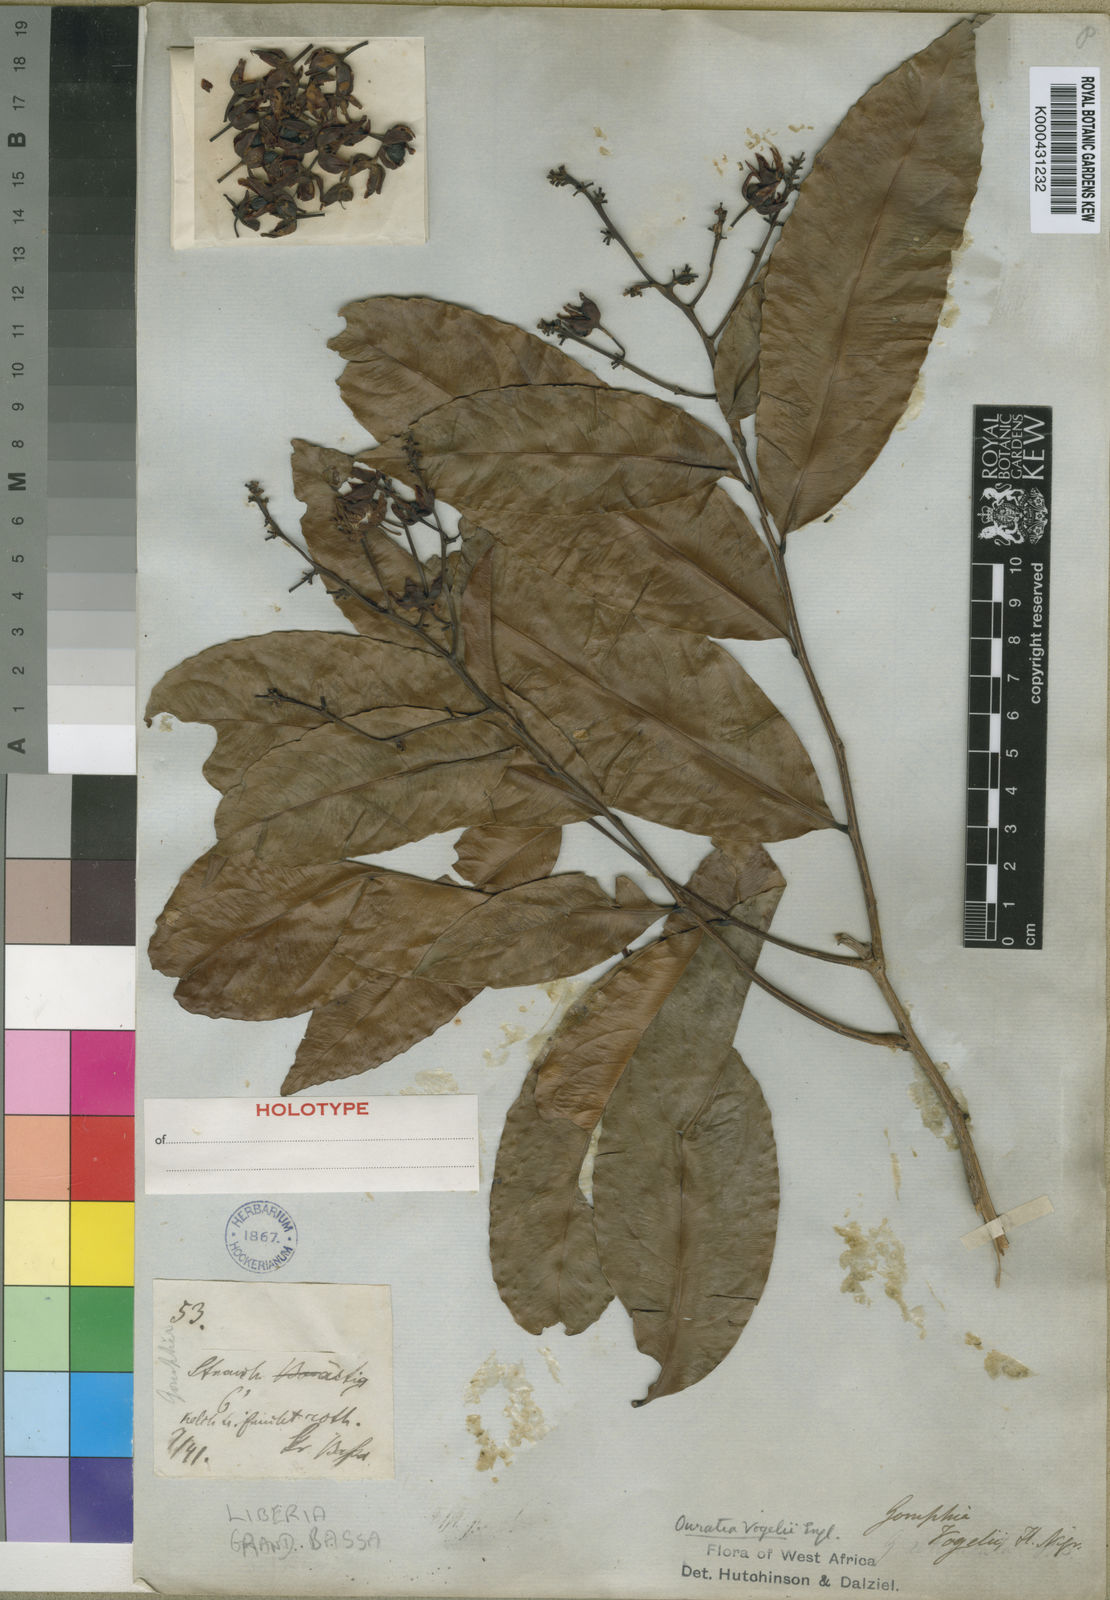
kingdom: Plantae
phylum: Tracheophyta
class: Magnoliopsida
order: Malpighiales
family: Ochnaceae
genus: Campylospermum
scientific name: Campylospermum vogelii
